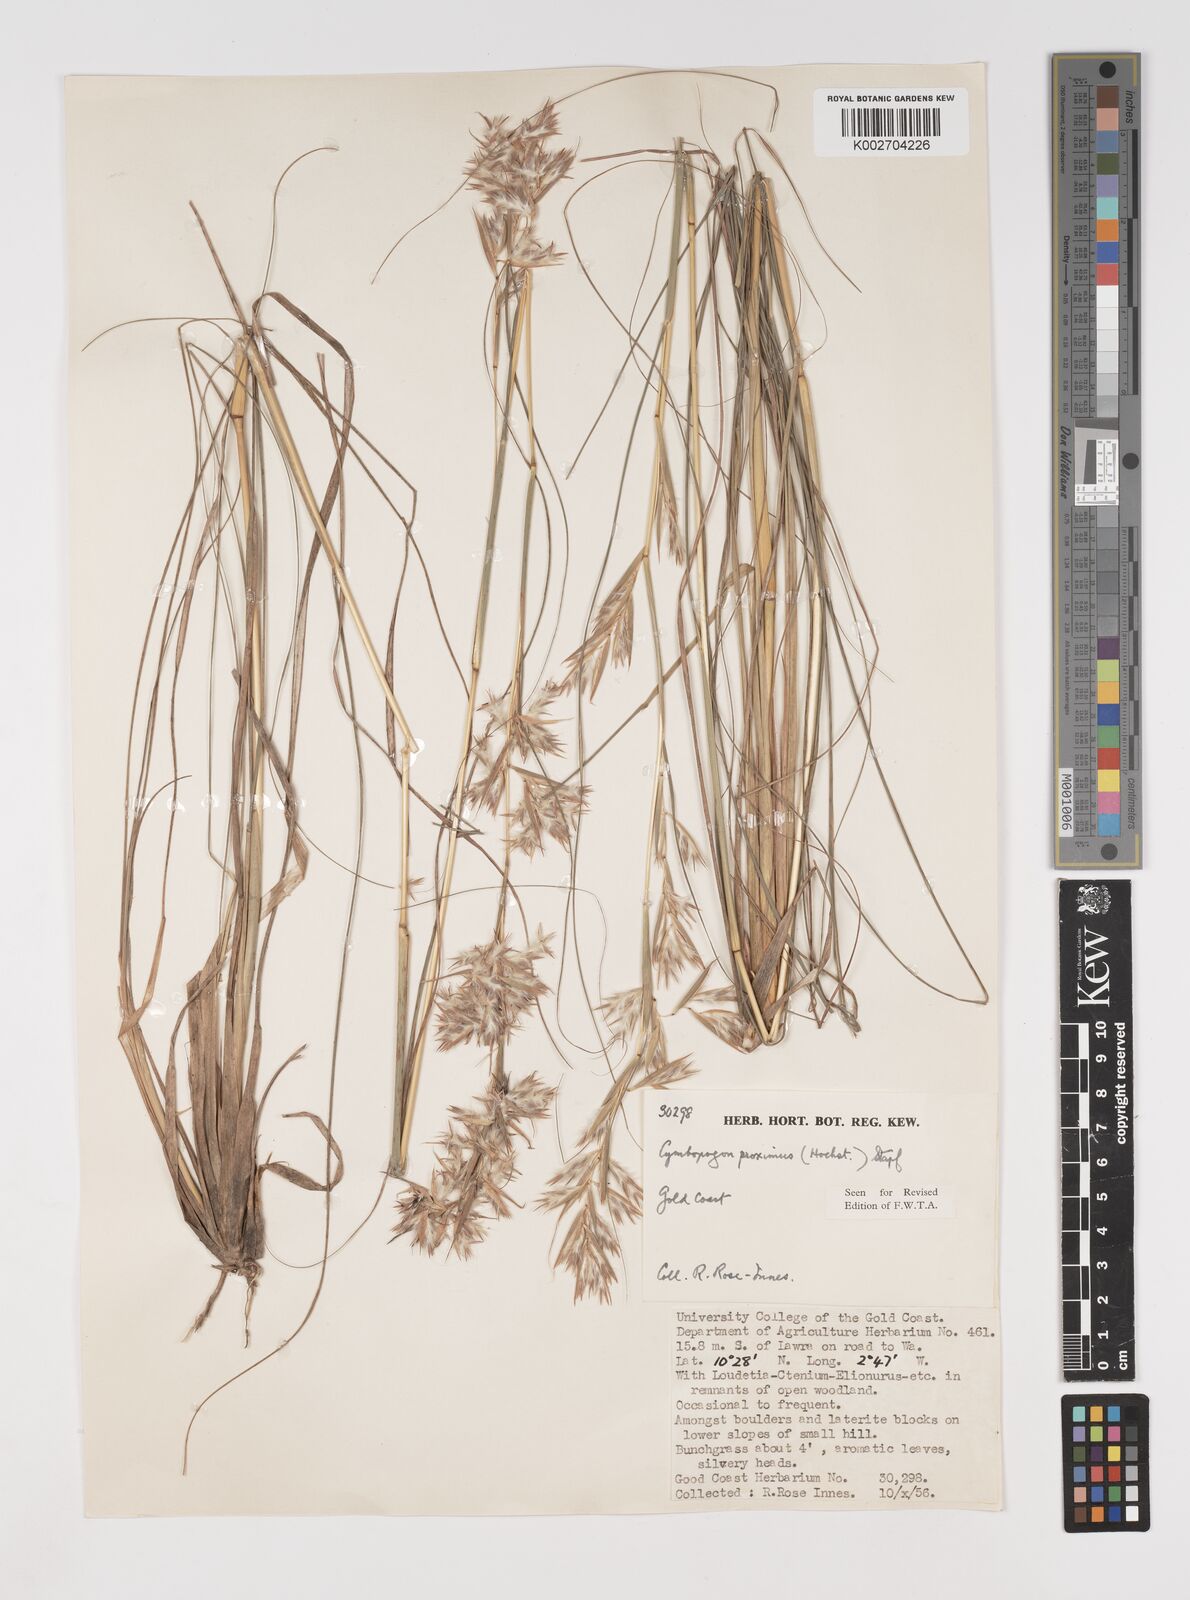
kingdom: Plantae
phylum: Tracheophyta
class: Liliopsida
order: Poales
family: Poaceae
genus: Cymbopogon
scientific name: Cymbopogon schoenanthus
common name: Geranium grass
